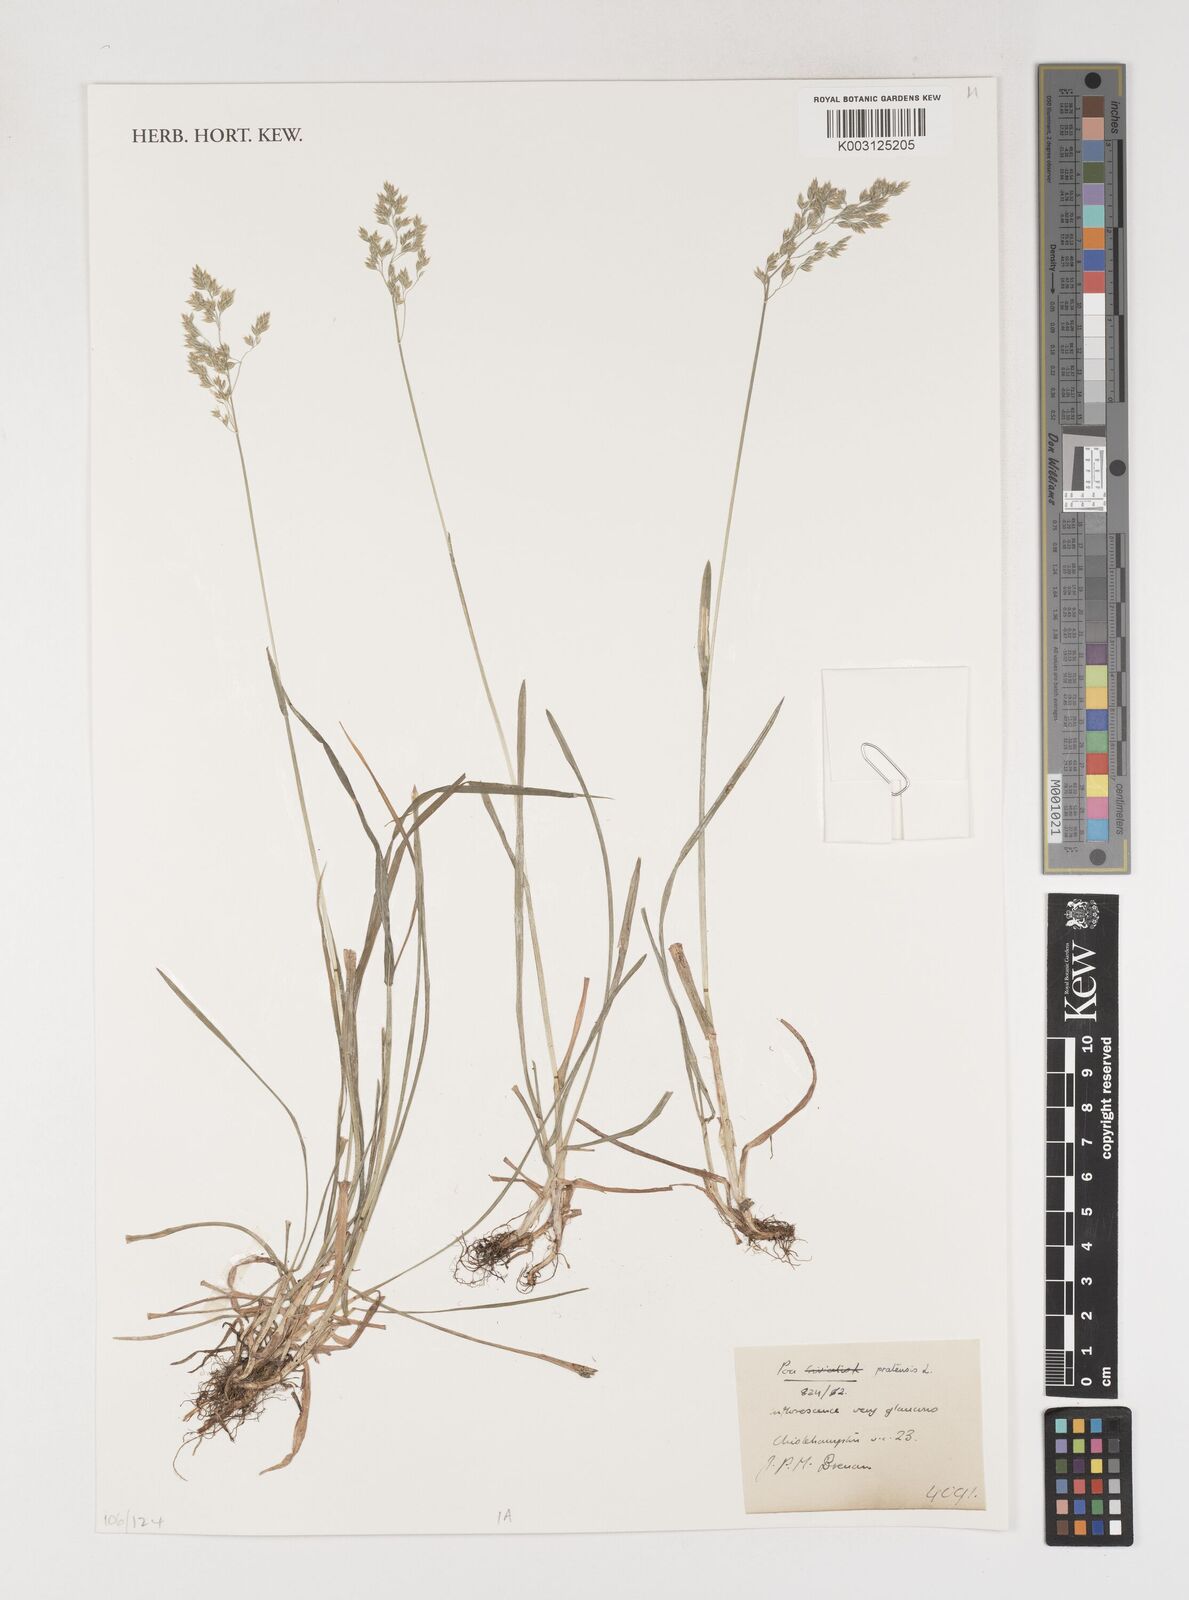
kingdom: Plantae
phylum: Tracheophyta
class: Liliopsida
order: Poales
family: Poaceae
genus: Poa
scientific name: Poa pratensis
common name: Kentucky bluegrass
